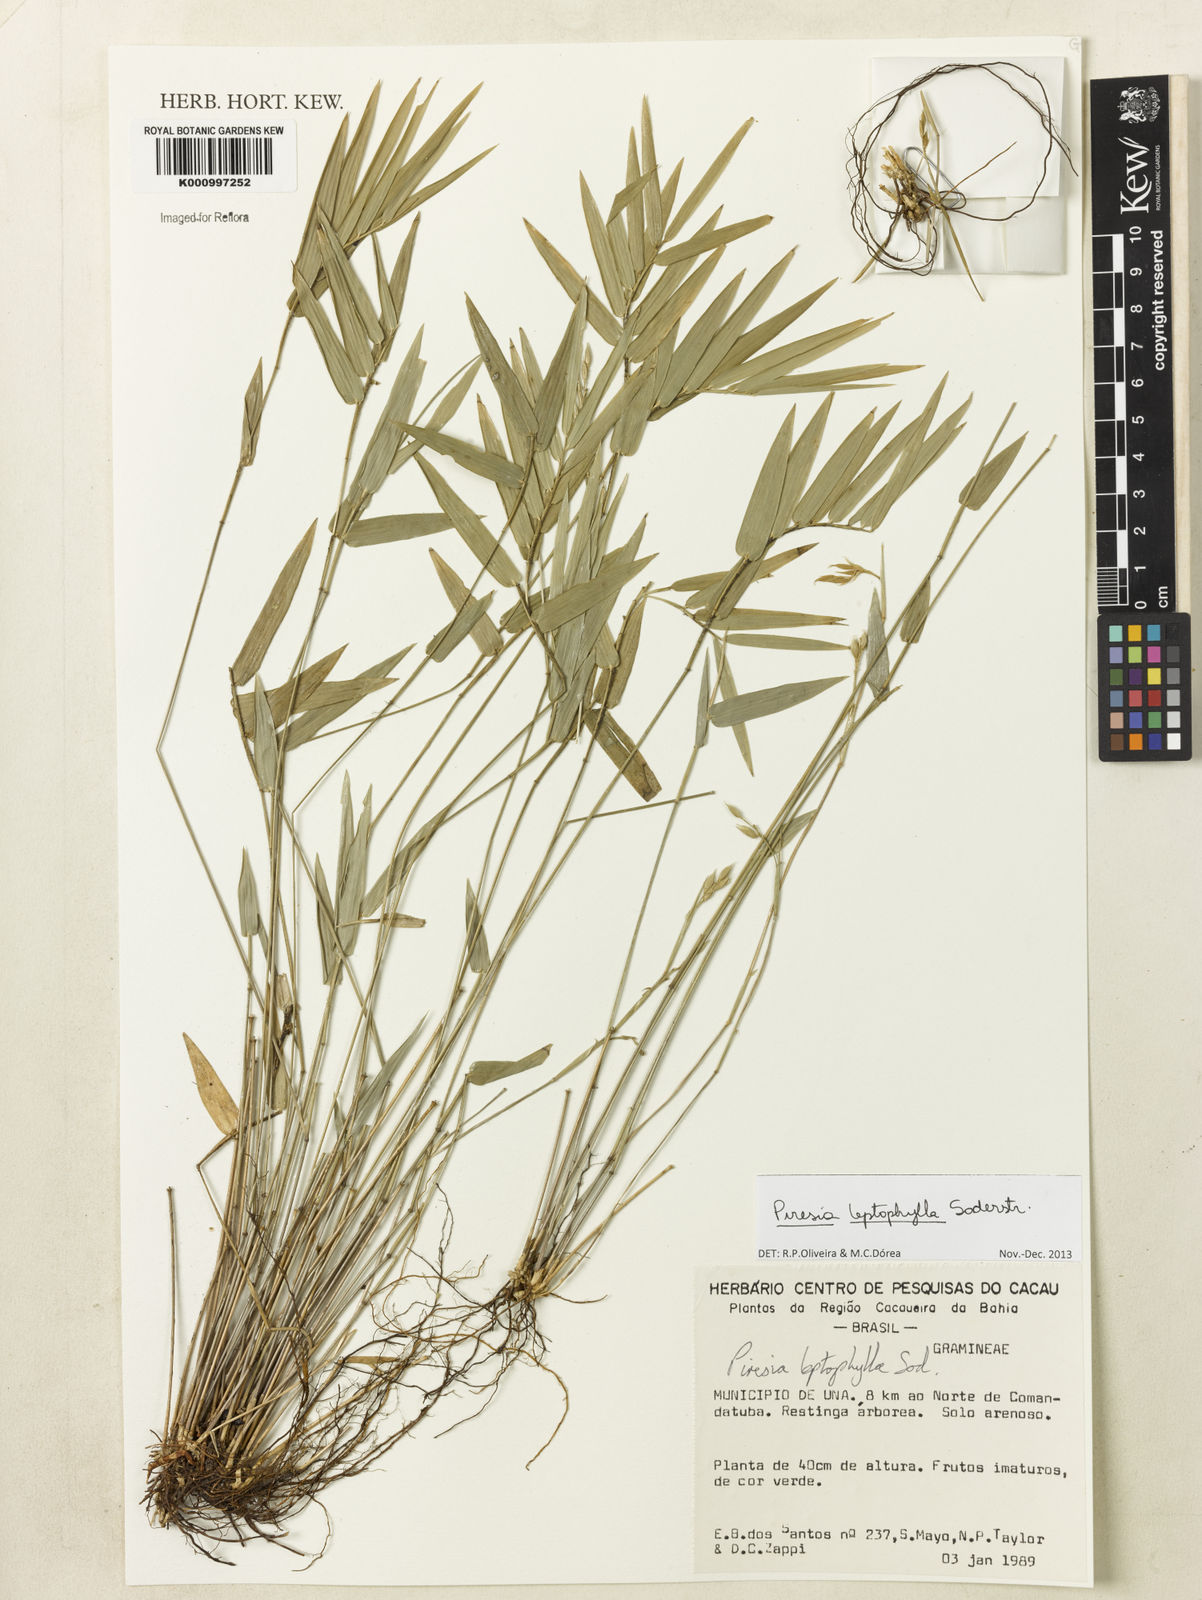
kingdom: Plantae
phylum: Tracheophyta
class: Liliopsida
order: Poales
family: Poaceae
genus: Piresia
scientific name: Piresia leptophylla
